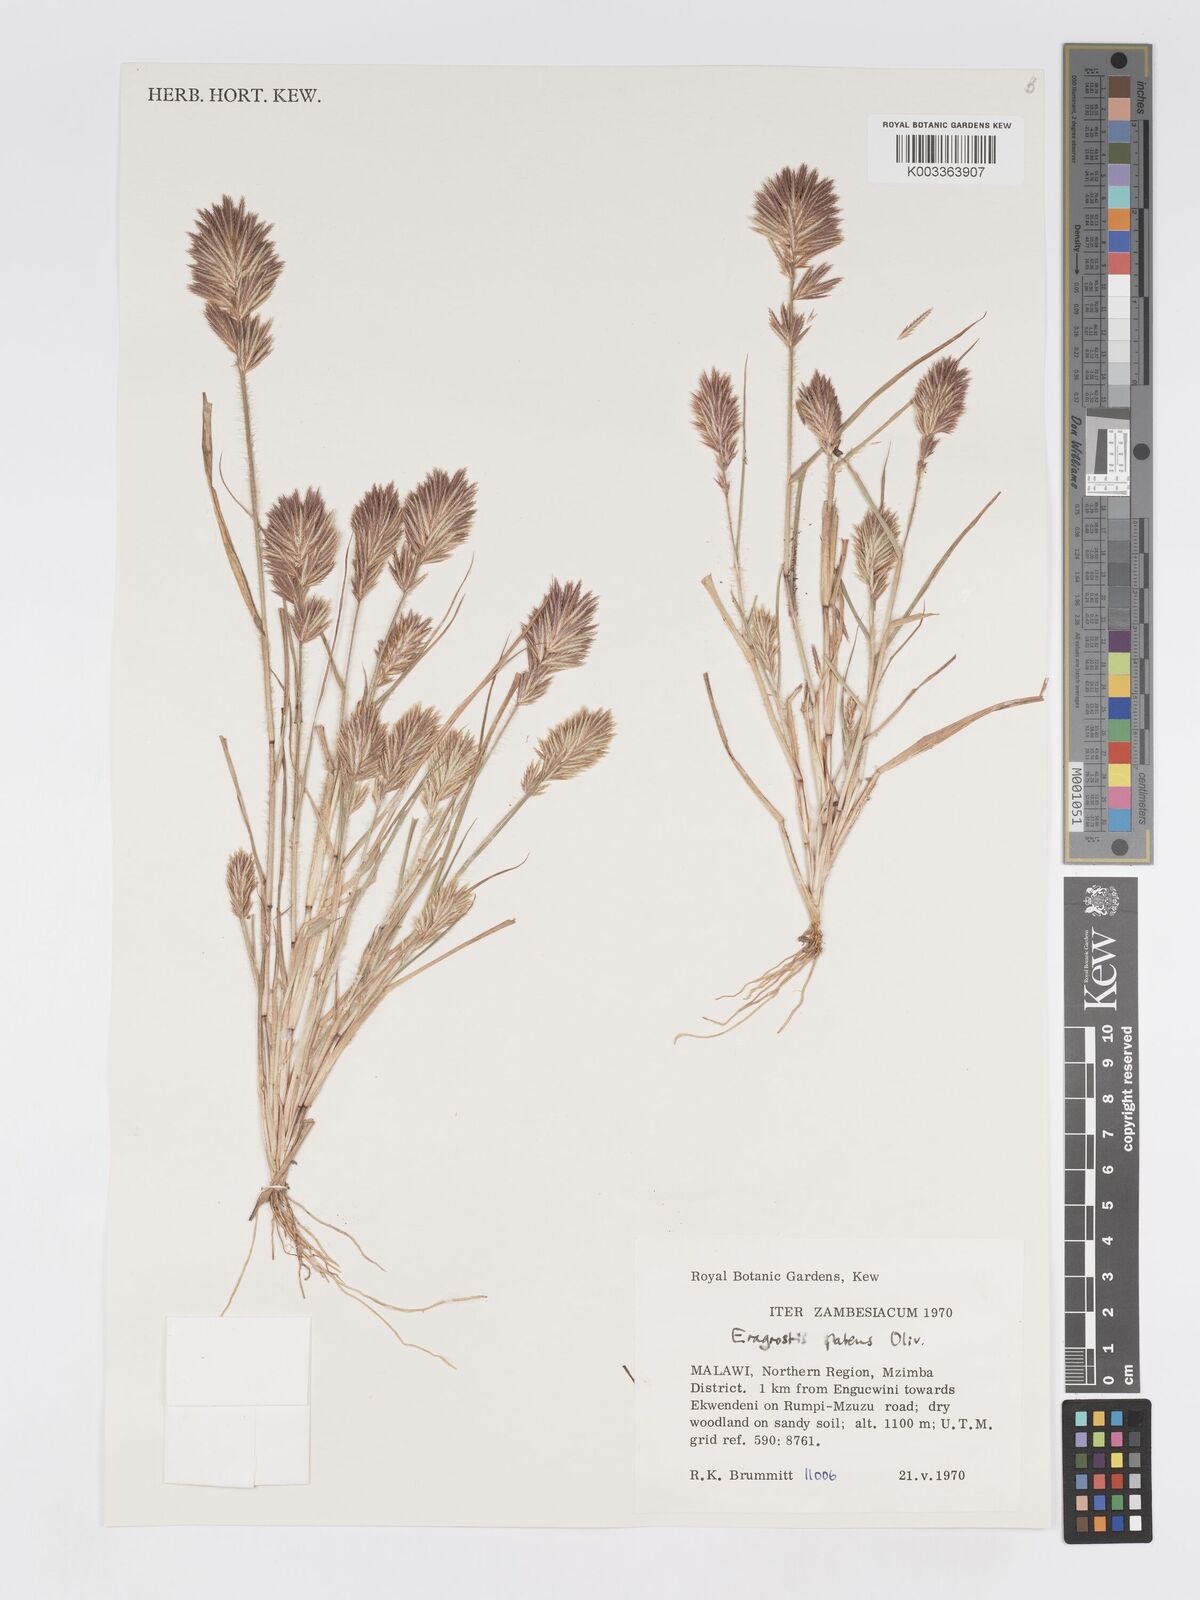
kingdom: Plantae
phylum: Tracheophyta
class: Liliopsida
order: Poales
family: Poaceae
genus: Eragrostis
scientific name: Eragrostis patens
